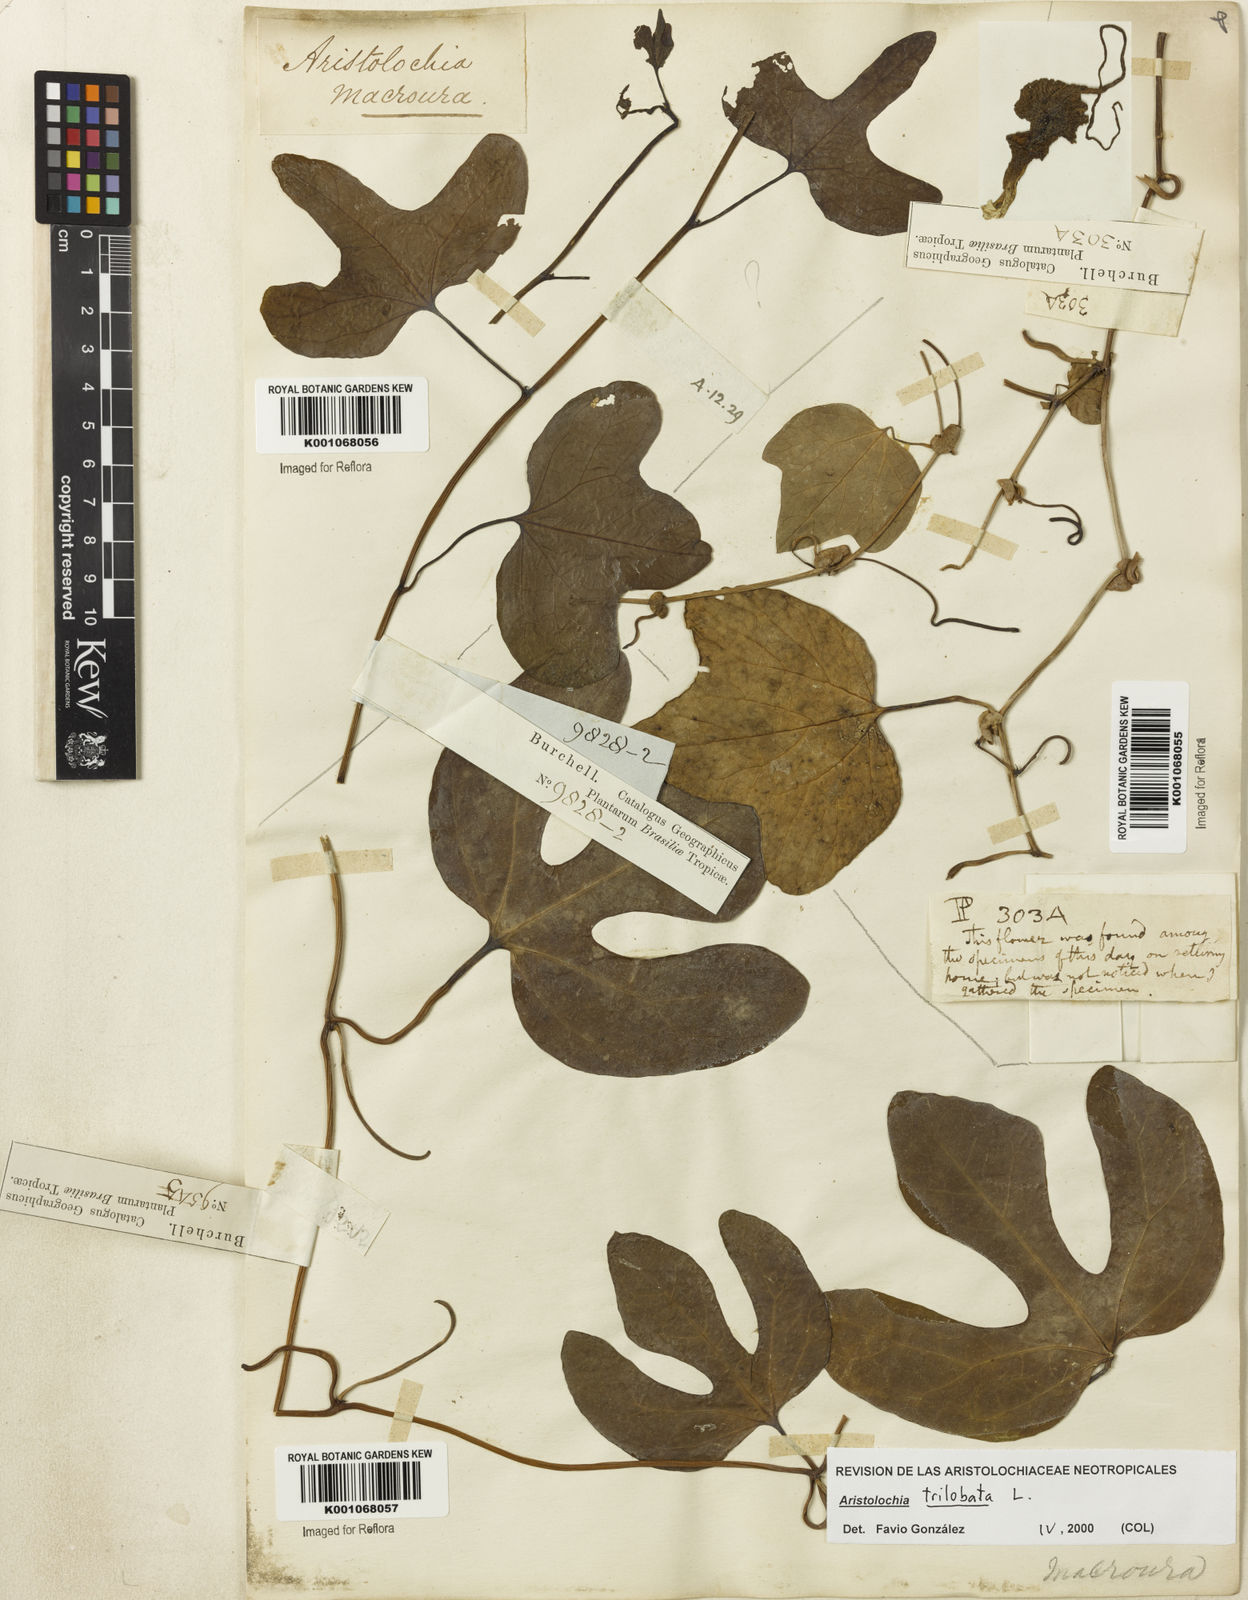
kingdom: Plantae
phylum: Tracheophyta
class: Magnoliopsida
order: Piperales
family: Aristolochiaceae
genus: Aristolochia
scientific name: Aristolochia trilobata
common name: Dutchman's pipe
